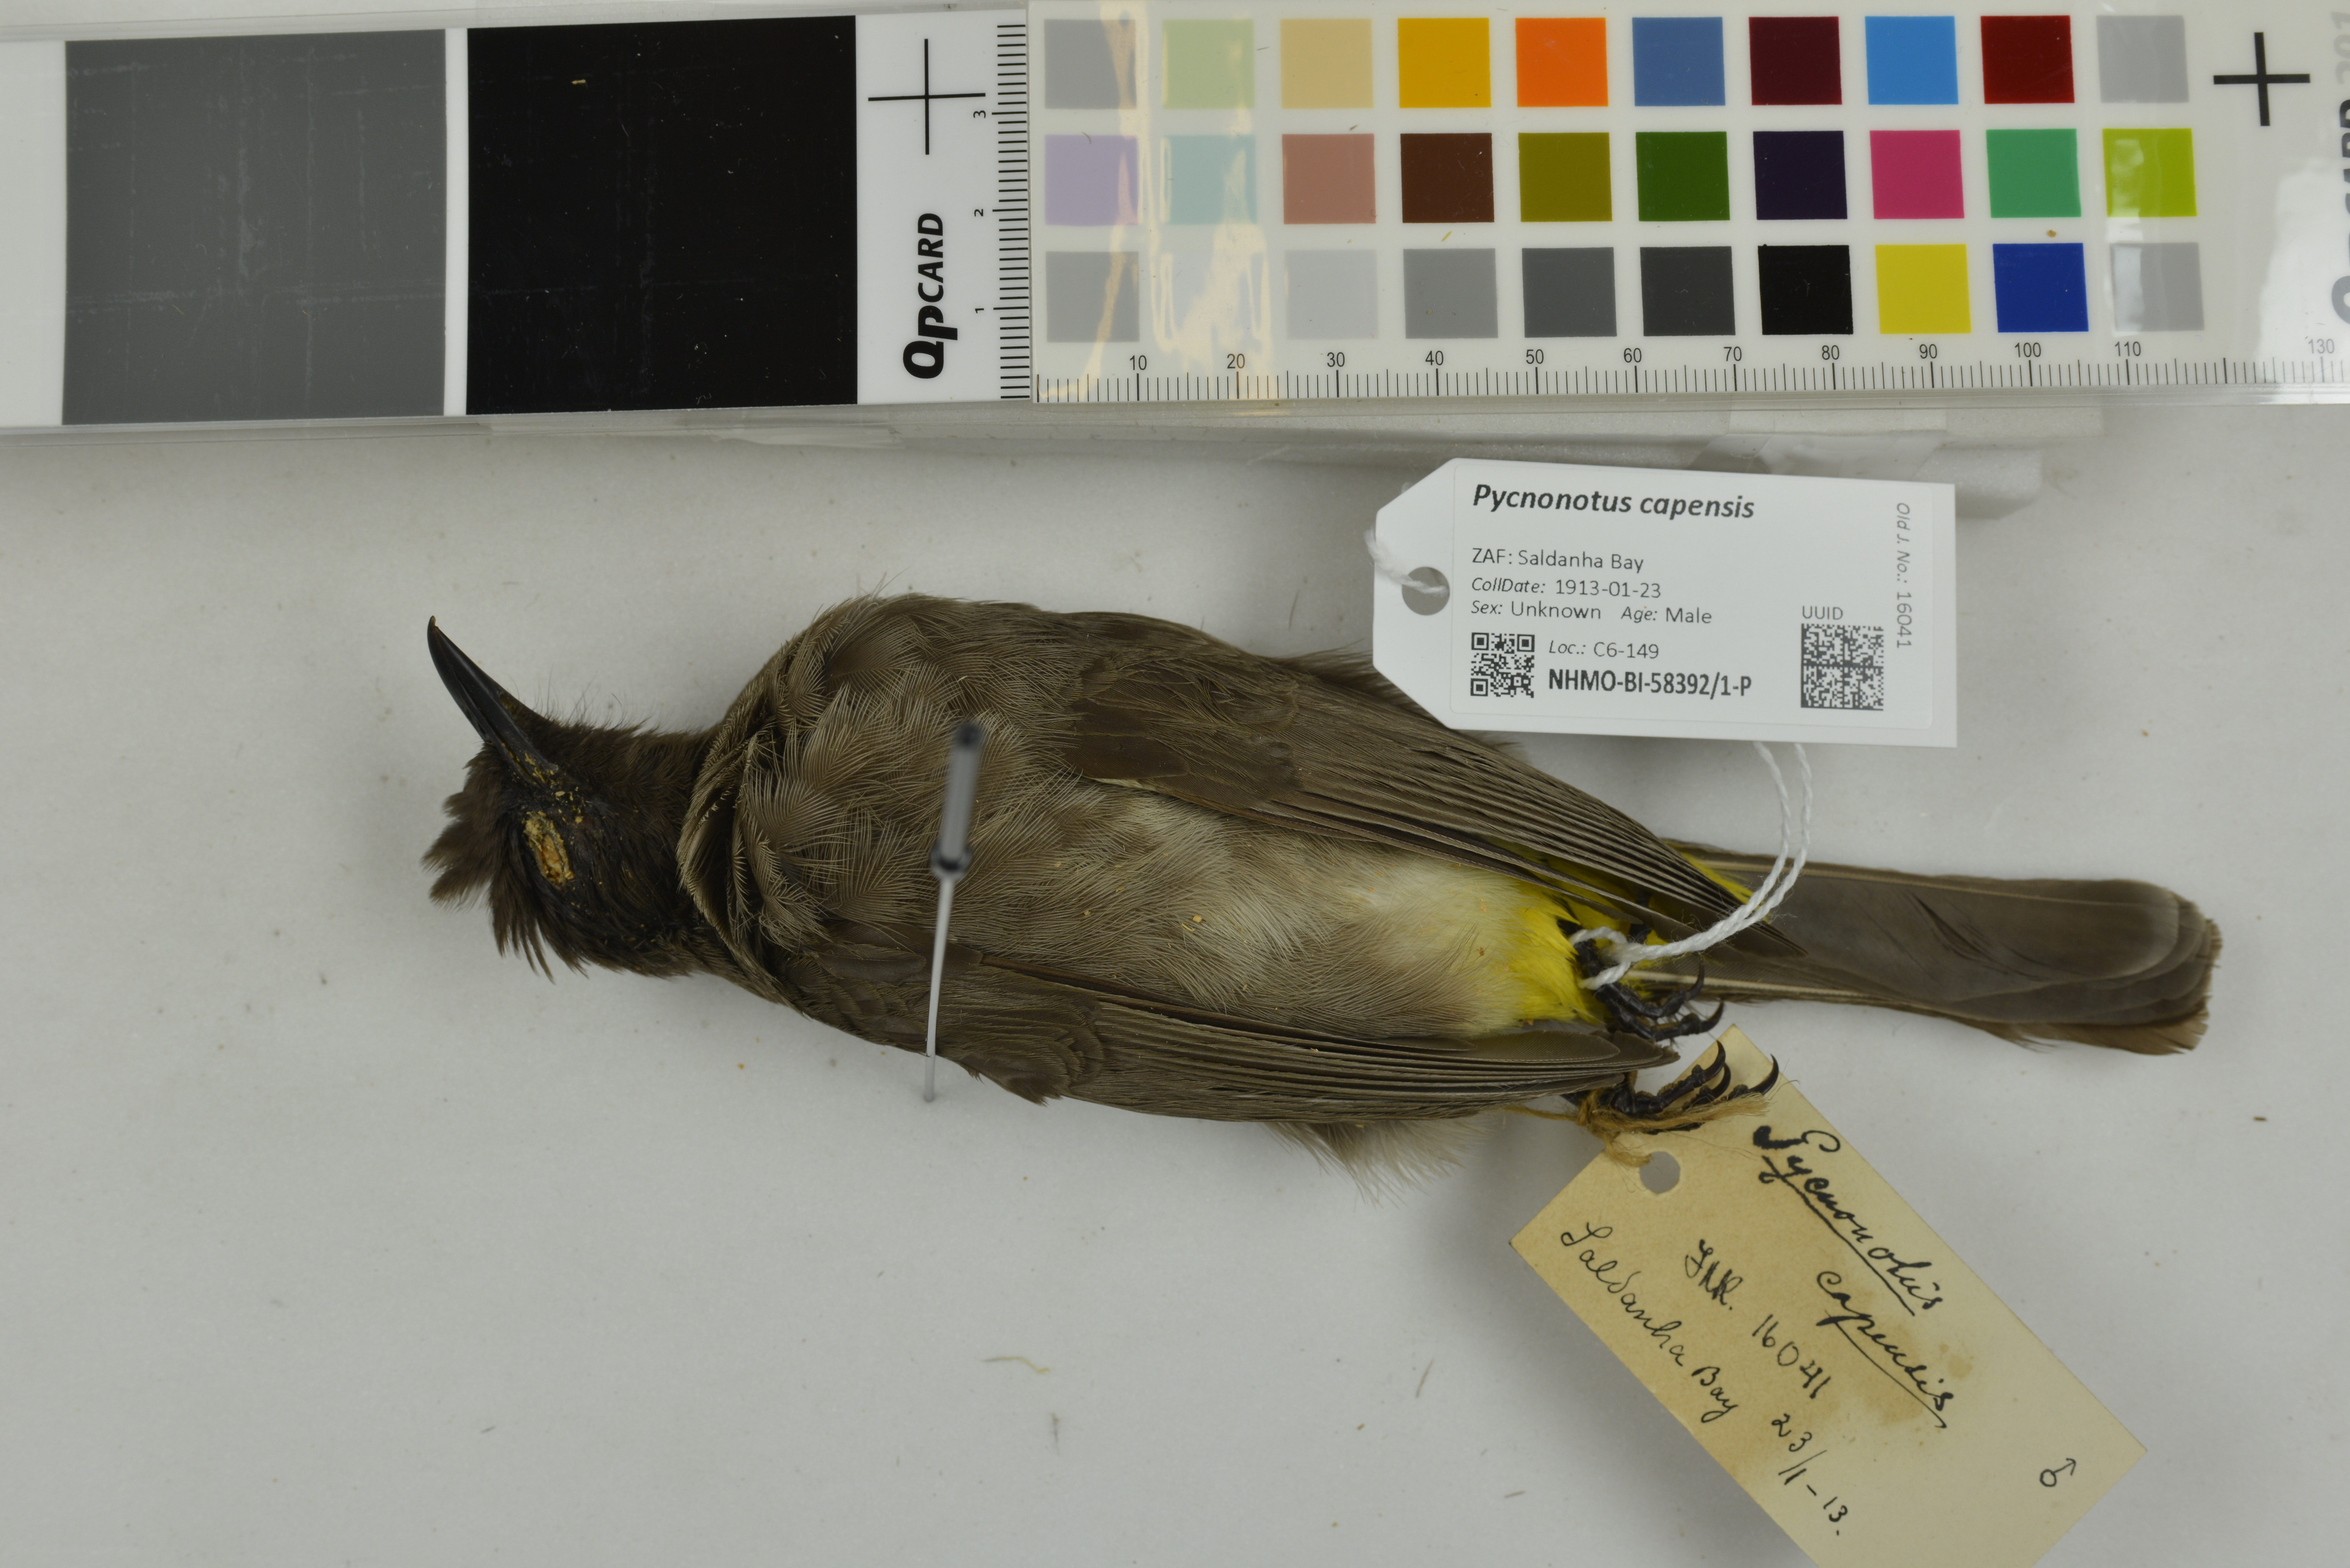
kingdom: Animalia
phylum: Chordata
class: Aves
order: Passeriformes
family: Pycnonotidae
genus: Pycnonotus
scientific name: Pycnonotus capensis
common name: Cape bulbul
